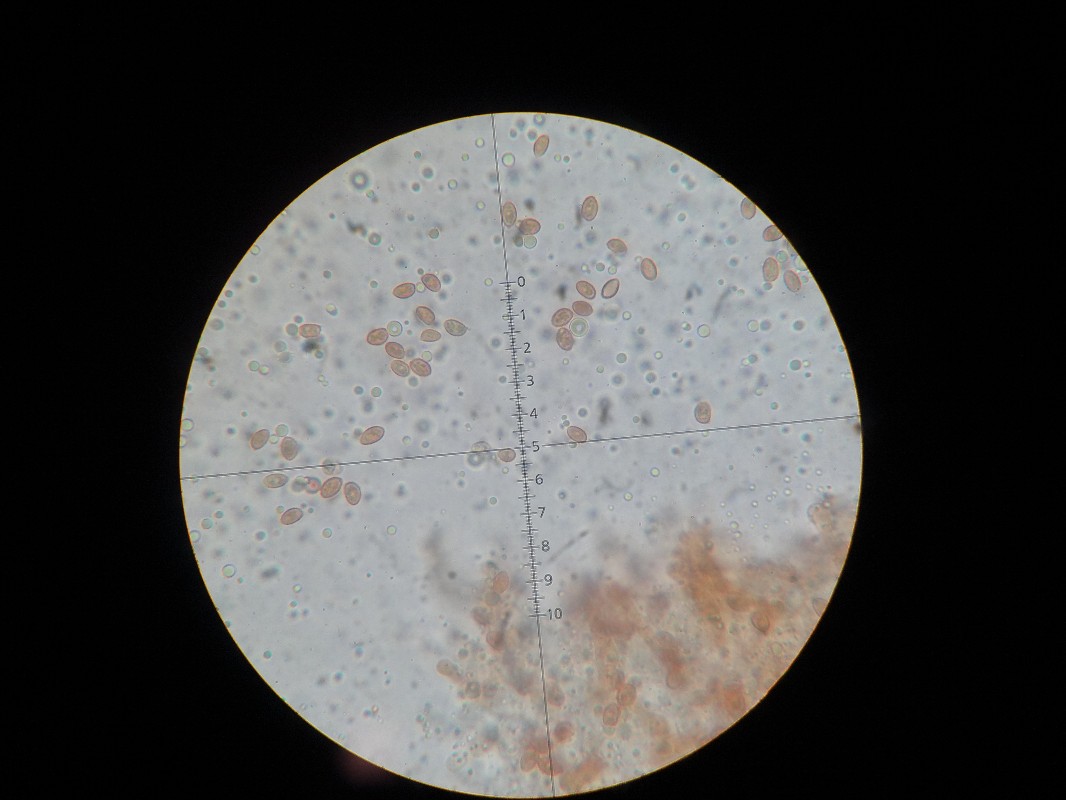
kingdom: Fungi
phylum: Basidiomycota
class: Agaricomycetes
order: Agaricales
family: Hymenogastraceae
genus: Gymnopilus
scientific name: Gymnopilus penetrans
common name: plettet flammehat
